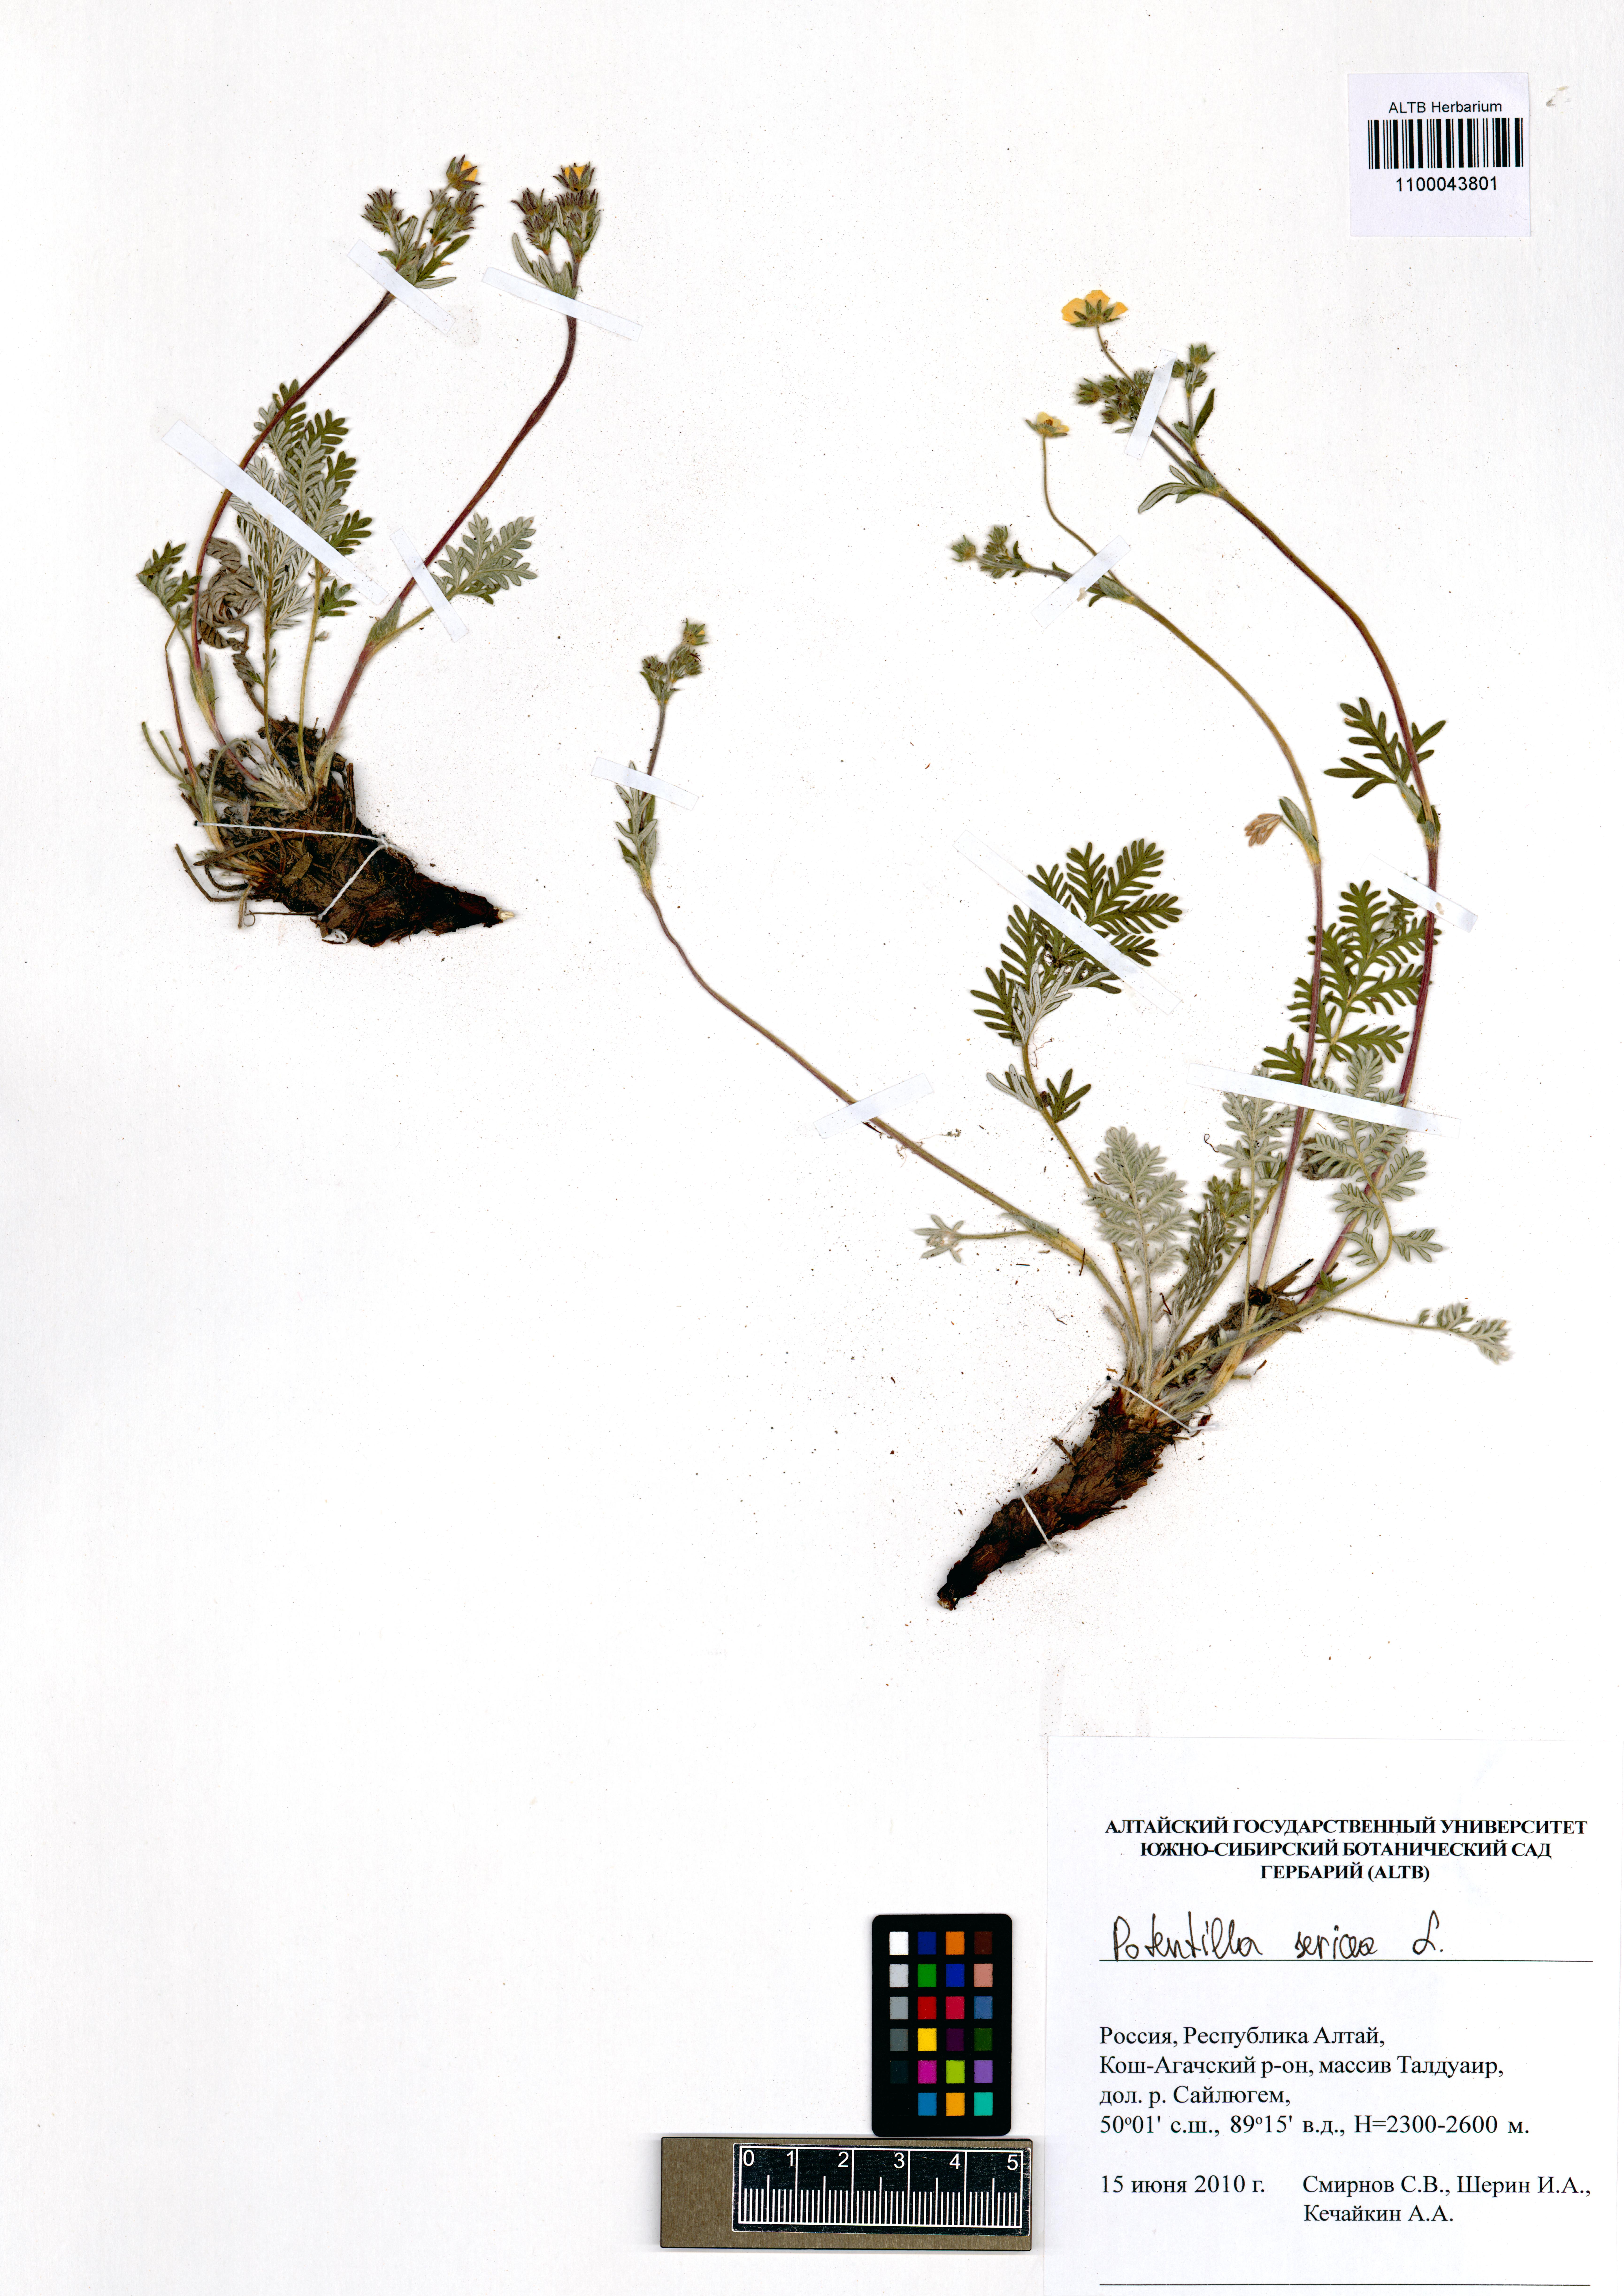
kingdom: Plantae
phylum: Tracheophyta
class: Magnoliopsida
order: Rosales
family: Rosaceae
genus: Potentilla
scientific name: Potentilla sericea
